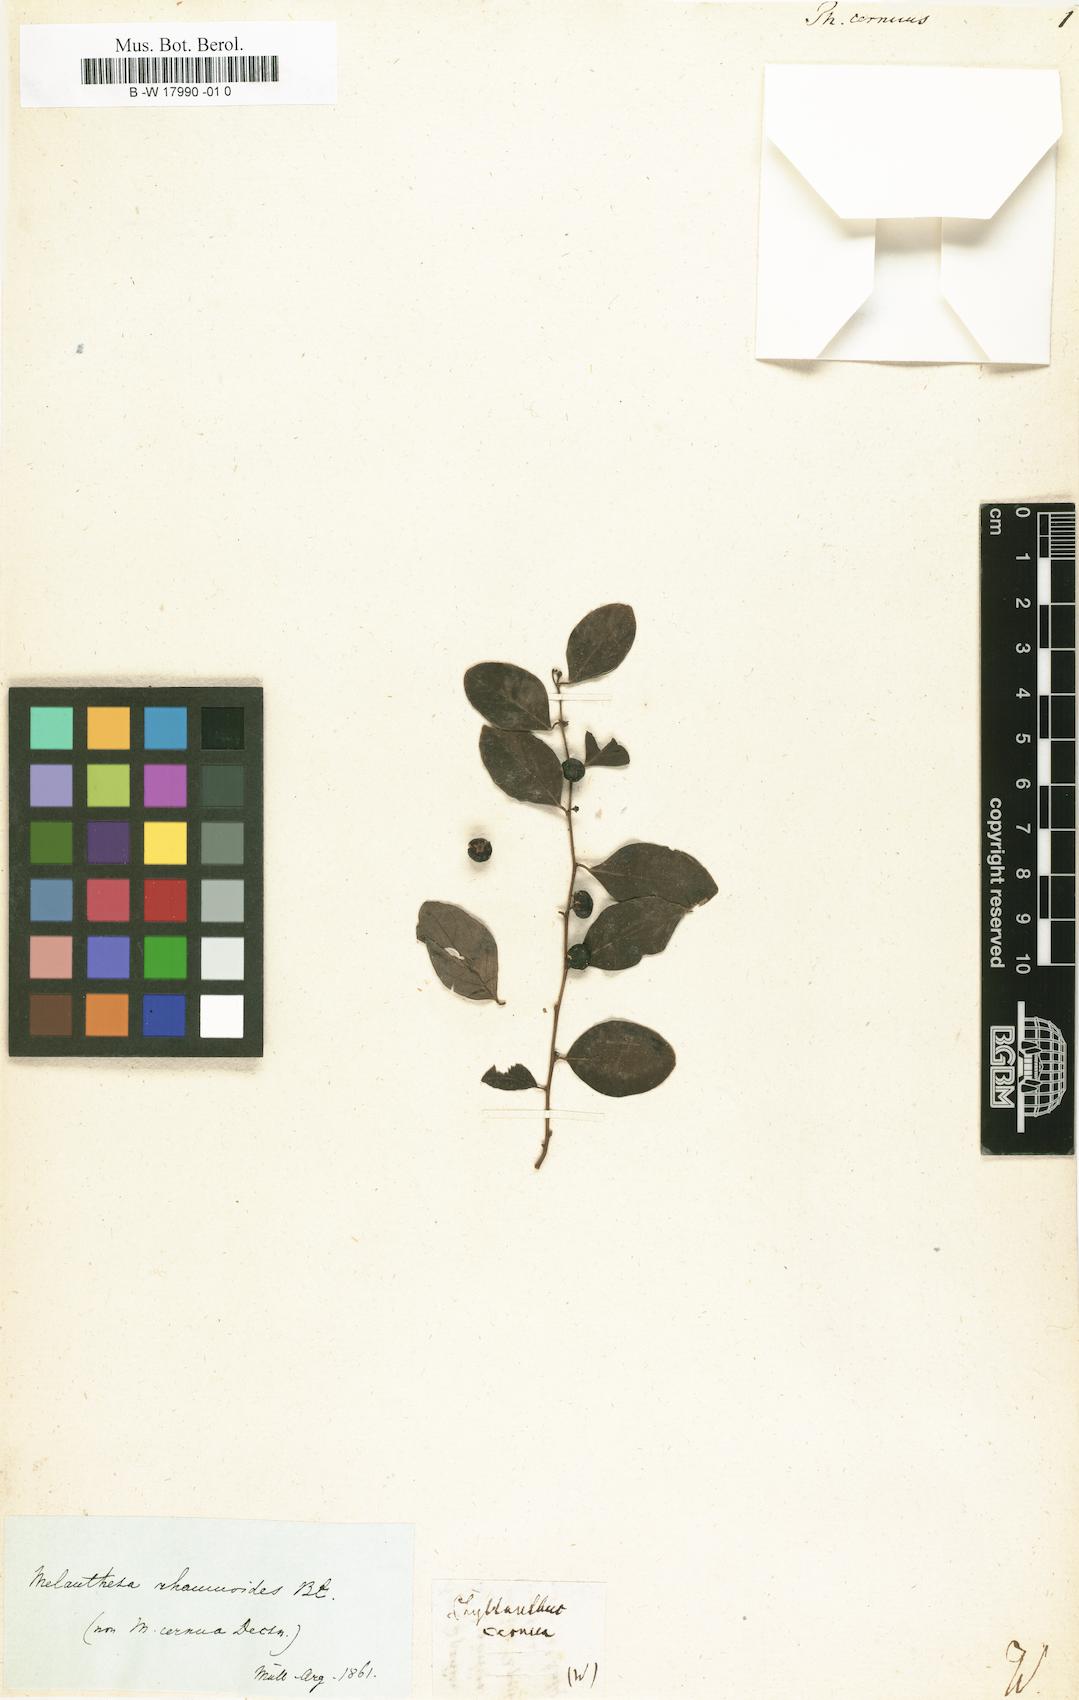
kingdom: Plantae
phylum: Tracheophyta
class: Magnoliopsida
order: Malpighiales
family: Phyllanthaceae
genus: Phyllanthus
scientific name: Phyllanthus cernuus
